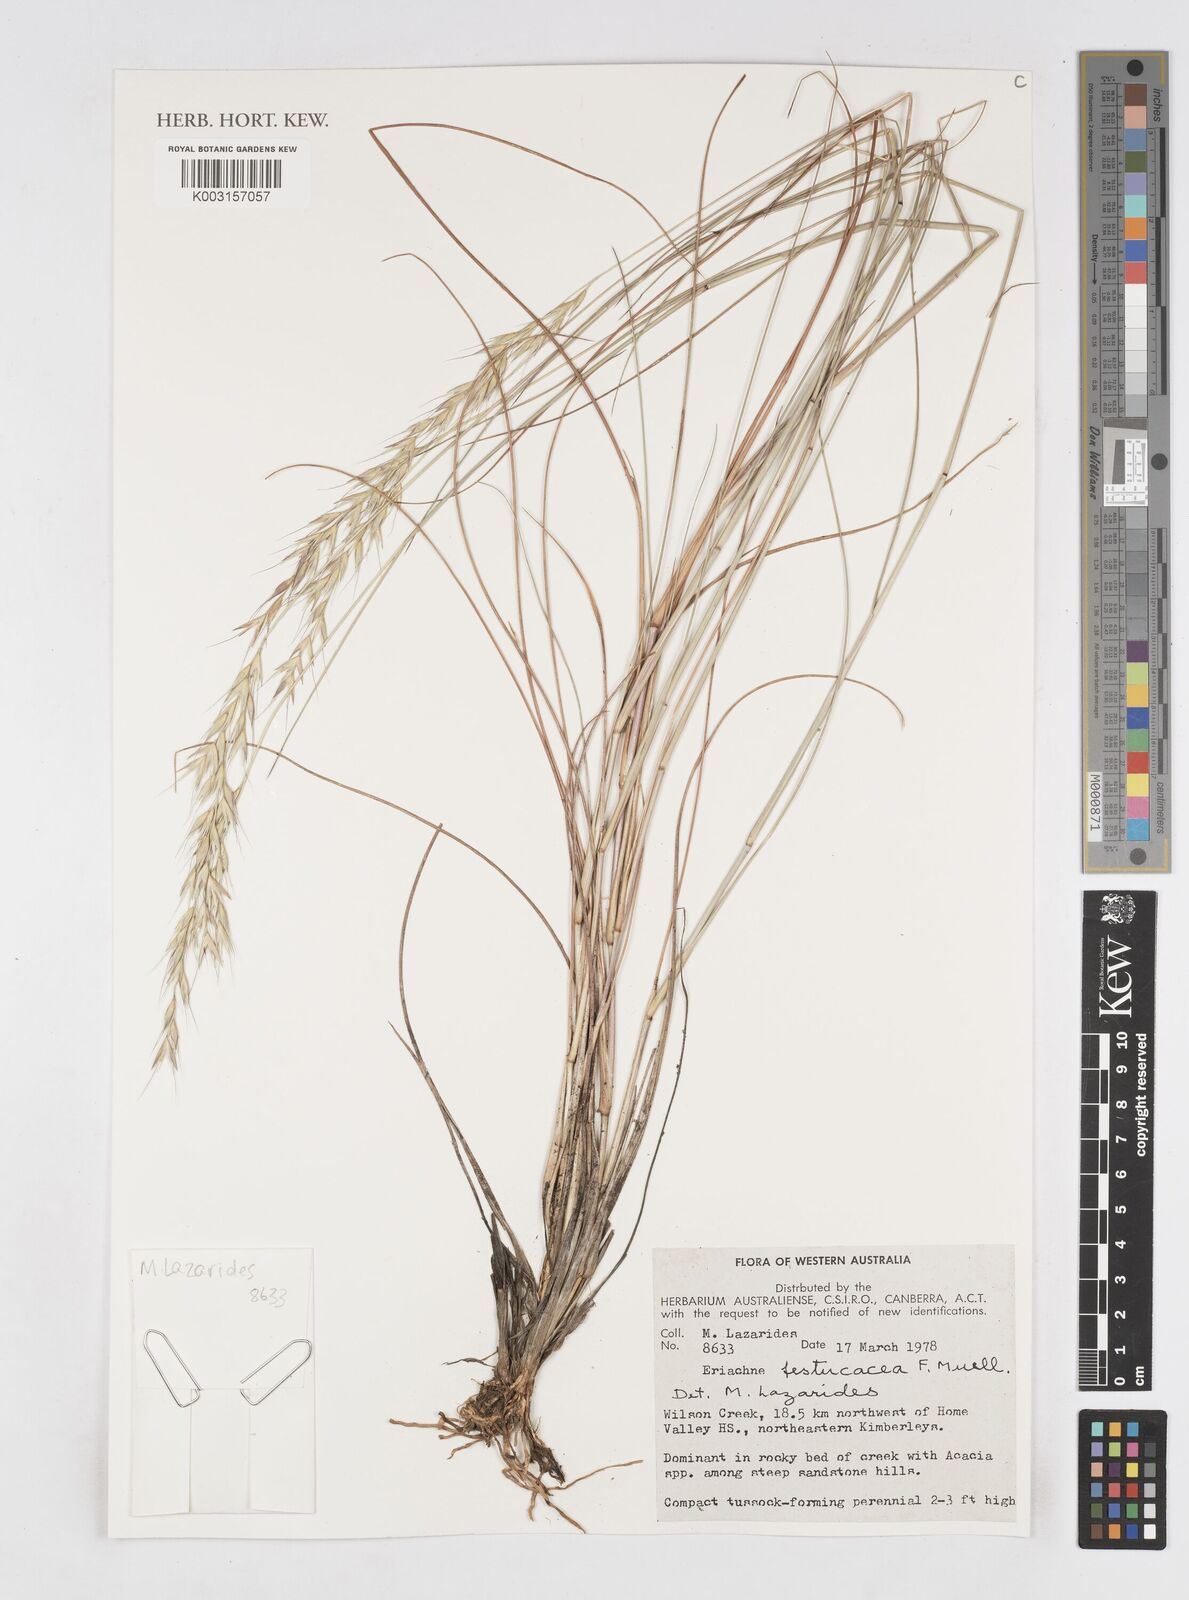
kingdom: Plantae
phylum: Tracheophyta
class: Liliopsida
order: Poales
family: Poaceae
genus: Eriachne
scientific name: Eriachne festucacea
